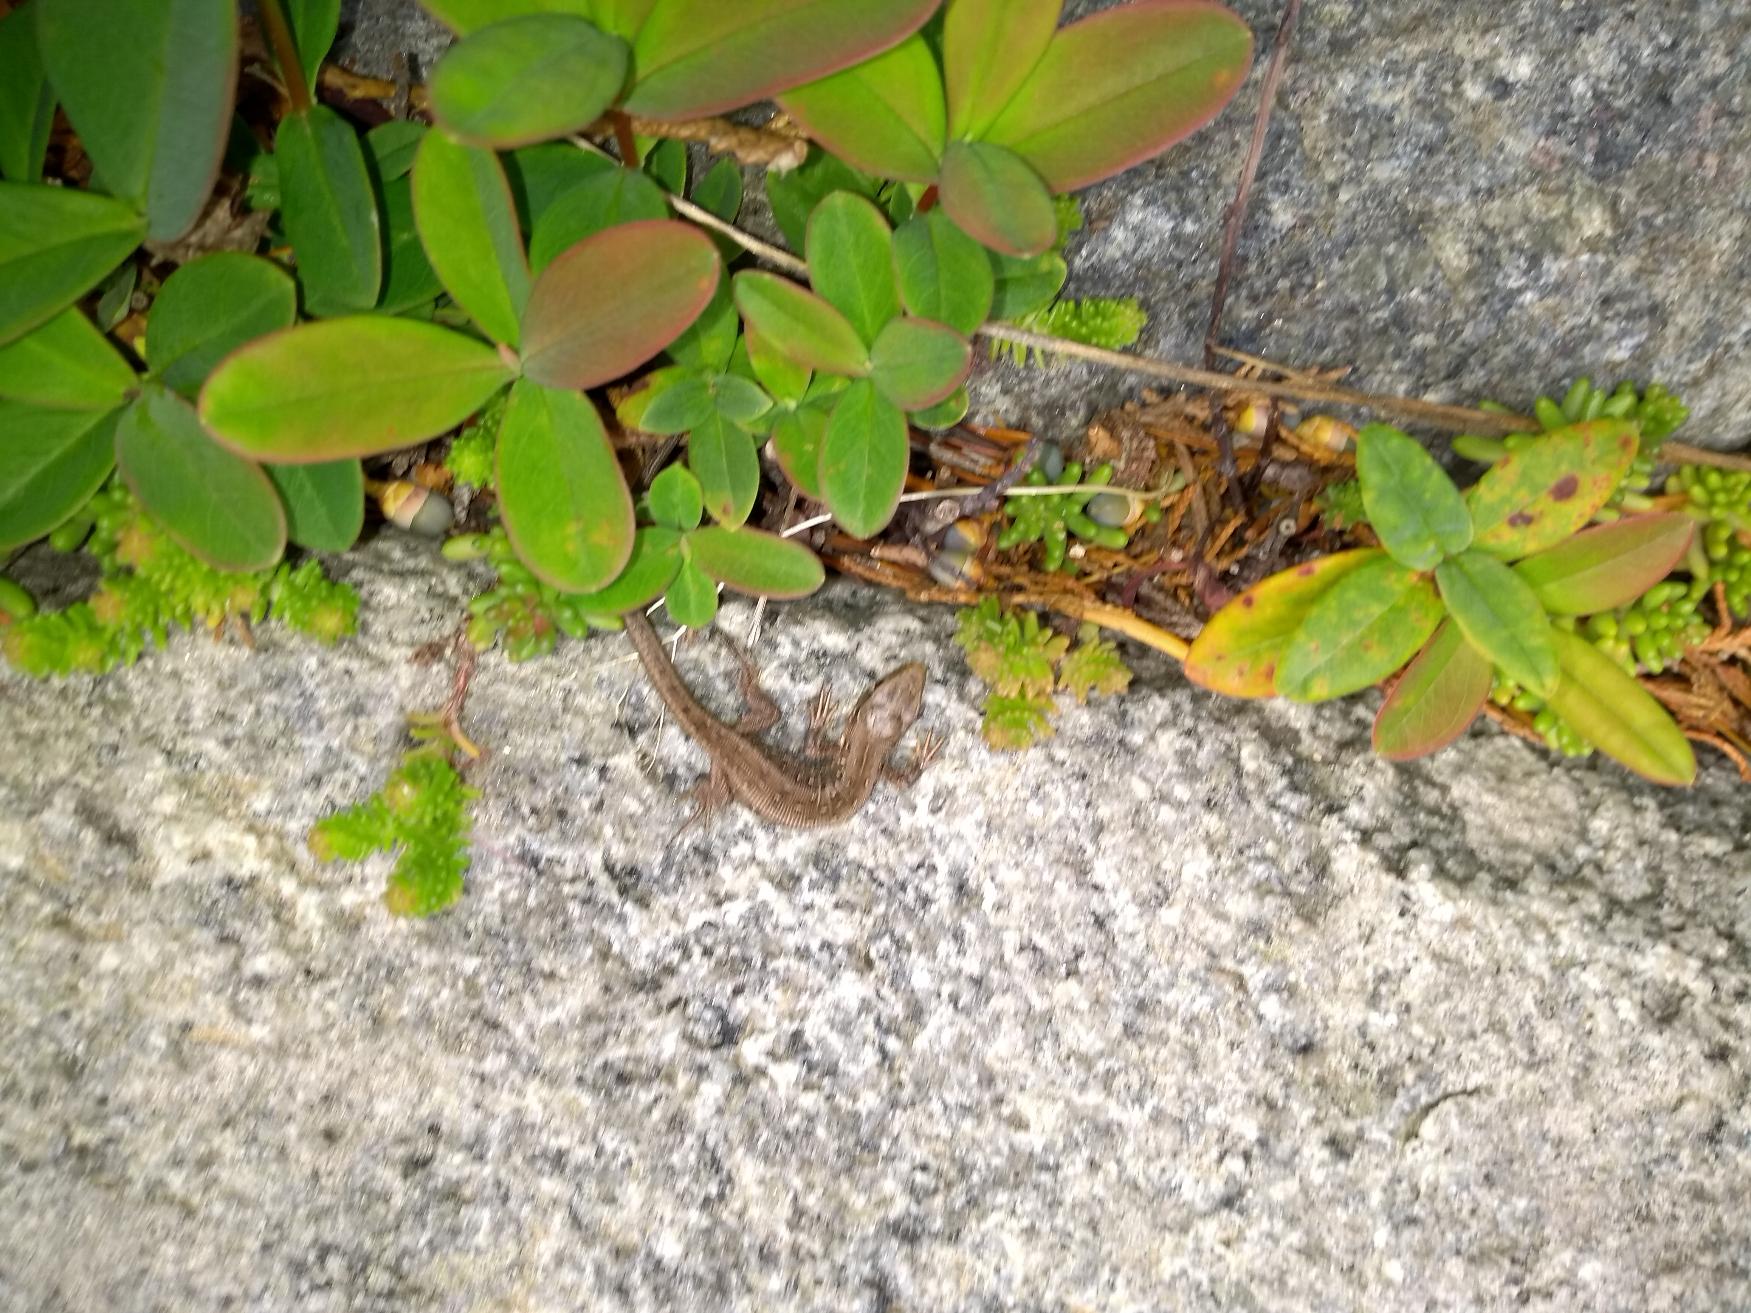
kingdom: Animalia
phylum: Chordata
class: Squamata
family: Lacertidae
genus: Lacerta
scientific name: Lacerta agilis
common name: Markfirben
